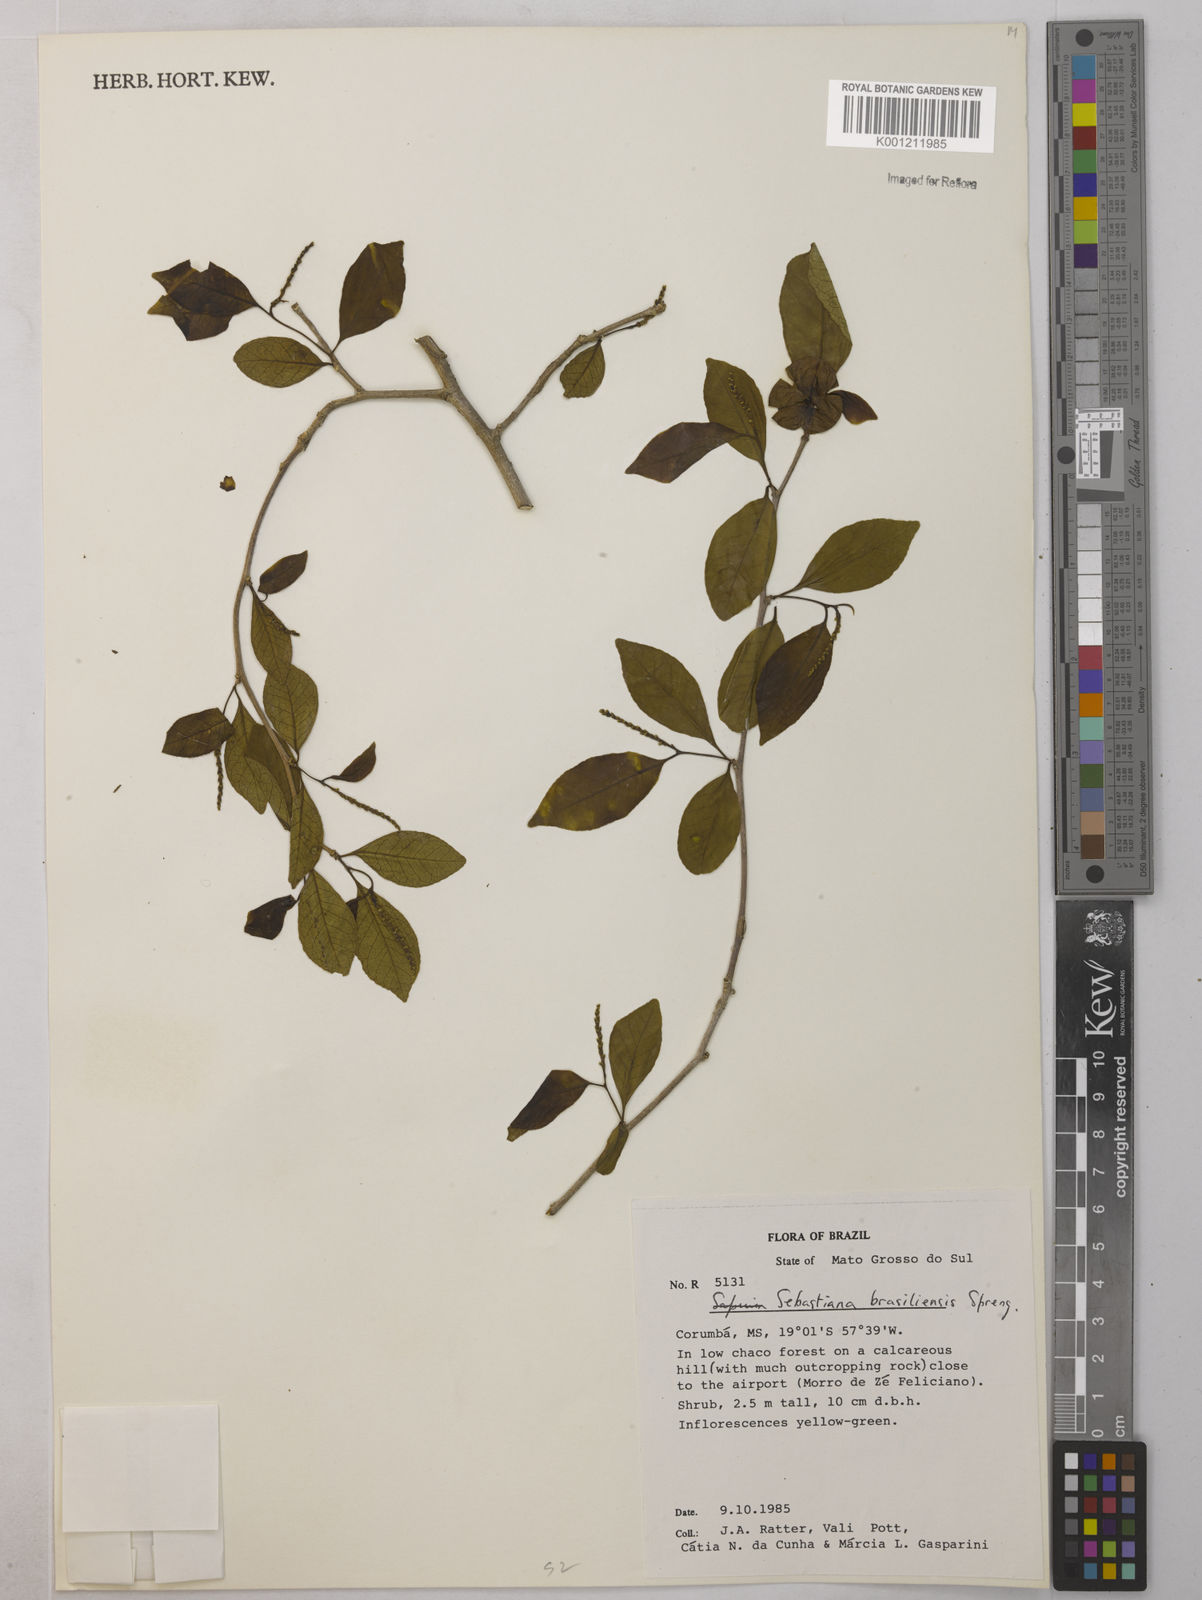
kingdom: Plantae
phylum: Tracheophyta
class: Magnoliopsida
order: Malpighiales
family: Euphorbiaceae
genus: Sebastiania
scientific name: Sebastiania brasiliensis
